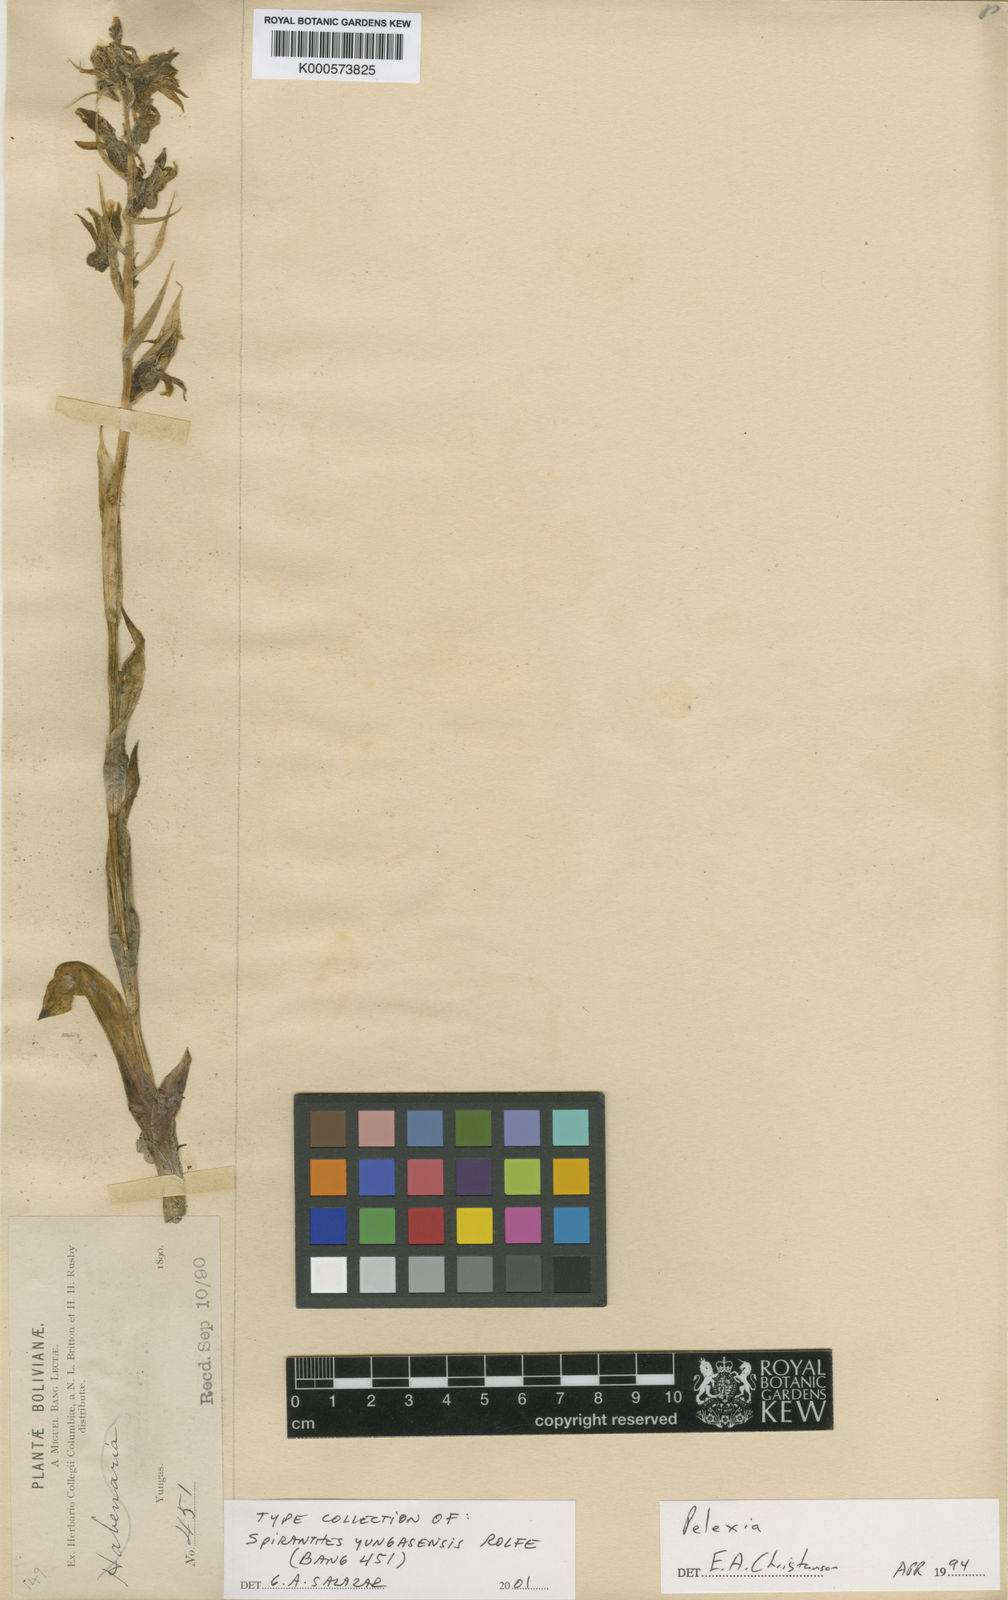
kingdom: Plantae
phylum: Tracheophyta
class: Liliopsida
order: Asparagales
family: Orchidaceae
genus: Pelexia
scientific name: Pelexia bonariensis
